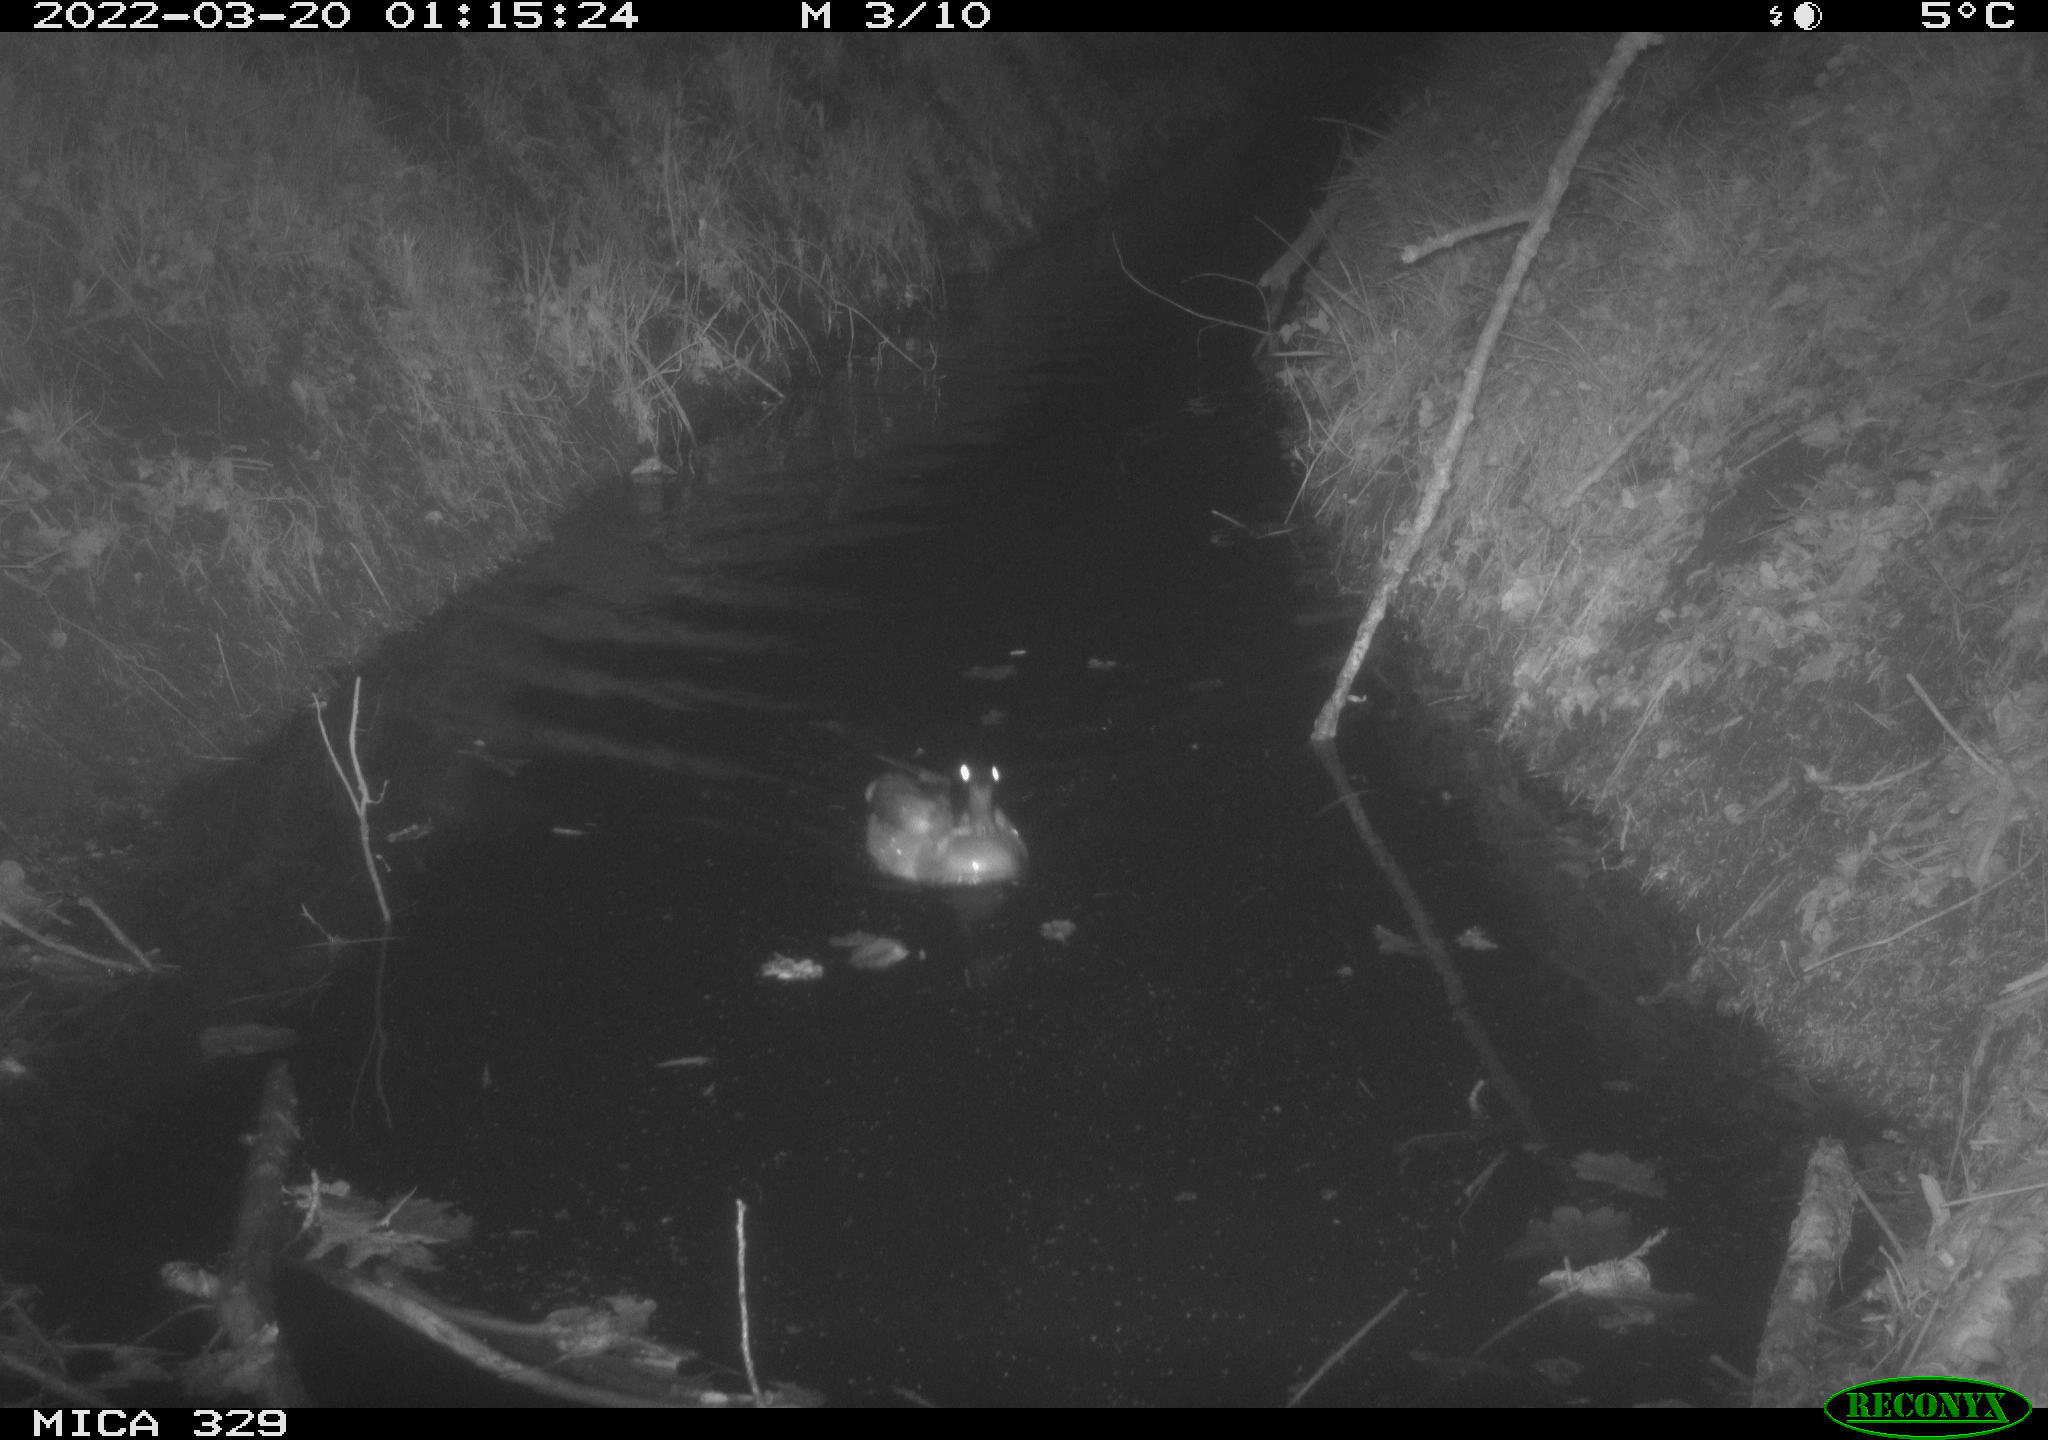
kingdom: Animalia
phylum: Chordata
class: Aves
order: Anseriformes
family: Anatidae
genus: Anas
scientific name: Anas platyrhynchos
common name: Mallard
